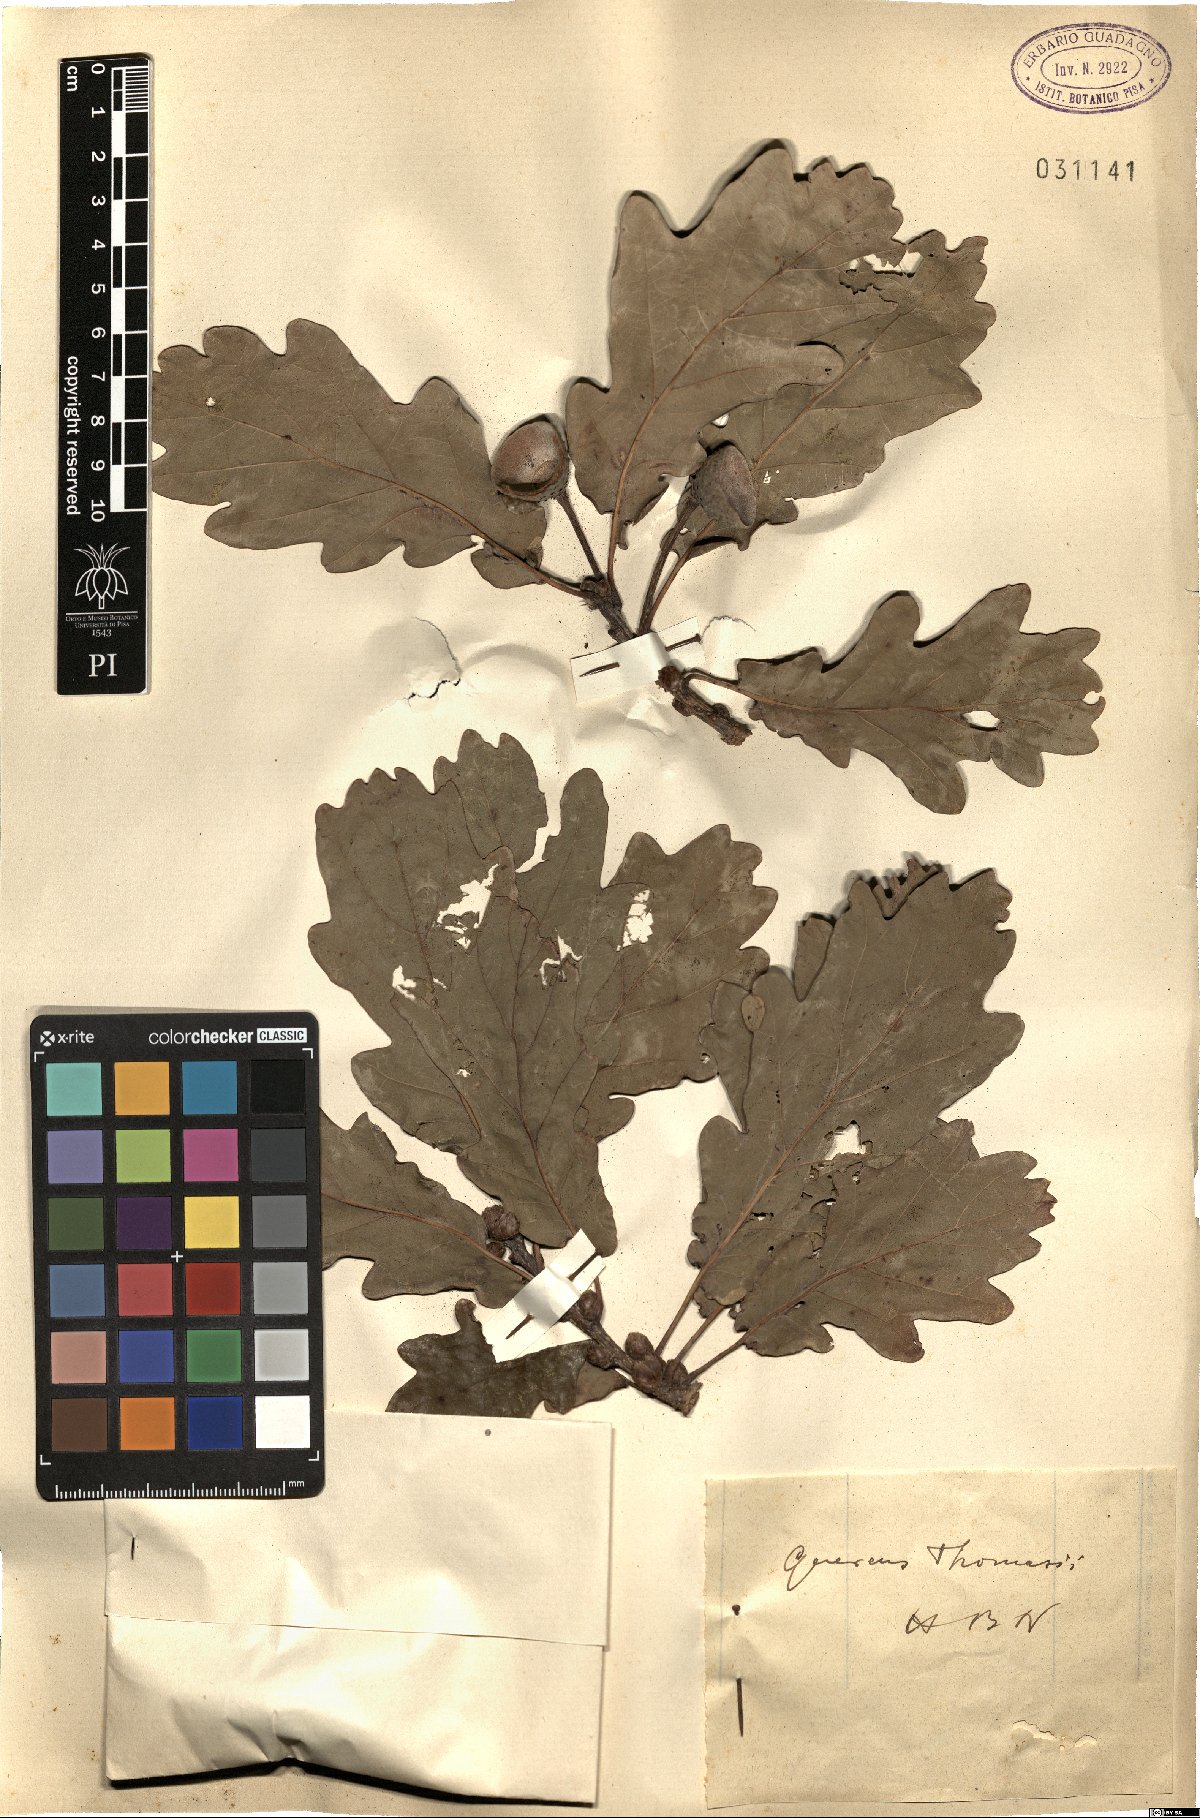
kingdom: Plantae
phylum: Tracheophyta
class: Magnoliopsida
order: Fagales
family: Fagaceae
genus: Quercus
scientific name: Quercus robur
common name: Pedunculate oak
